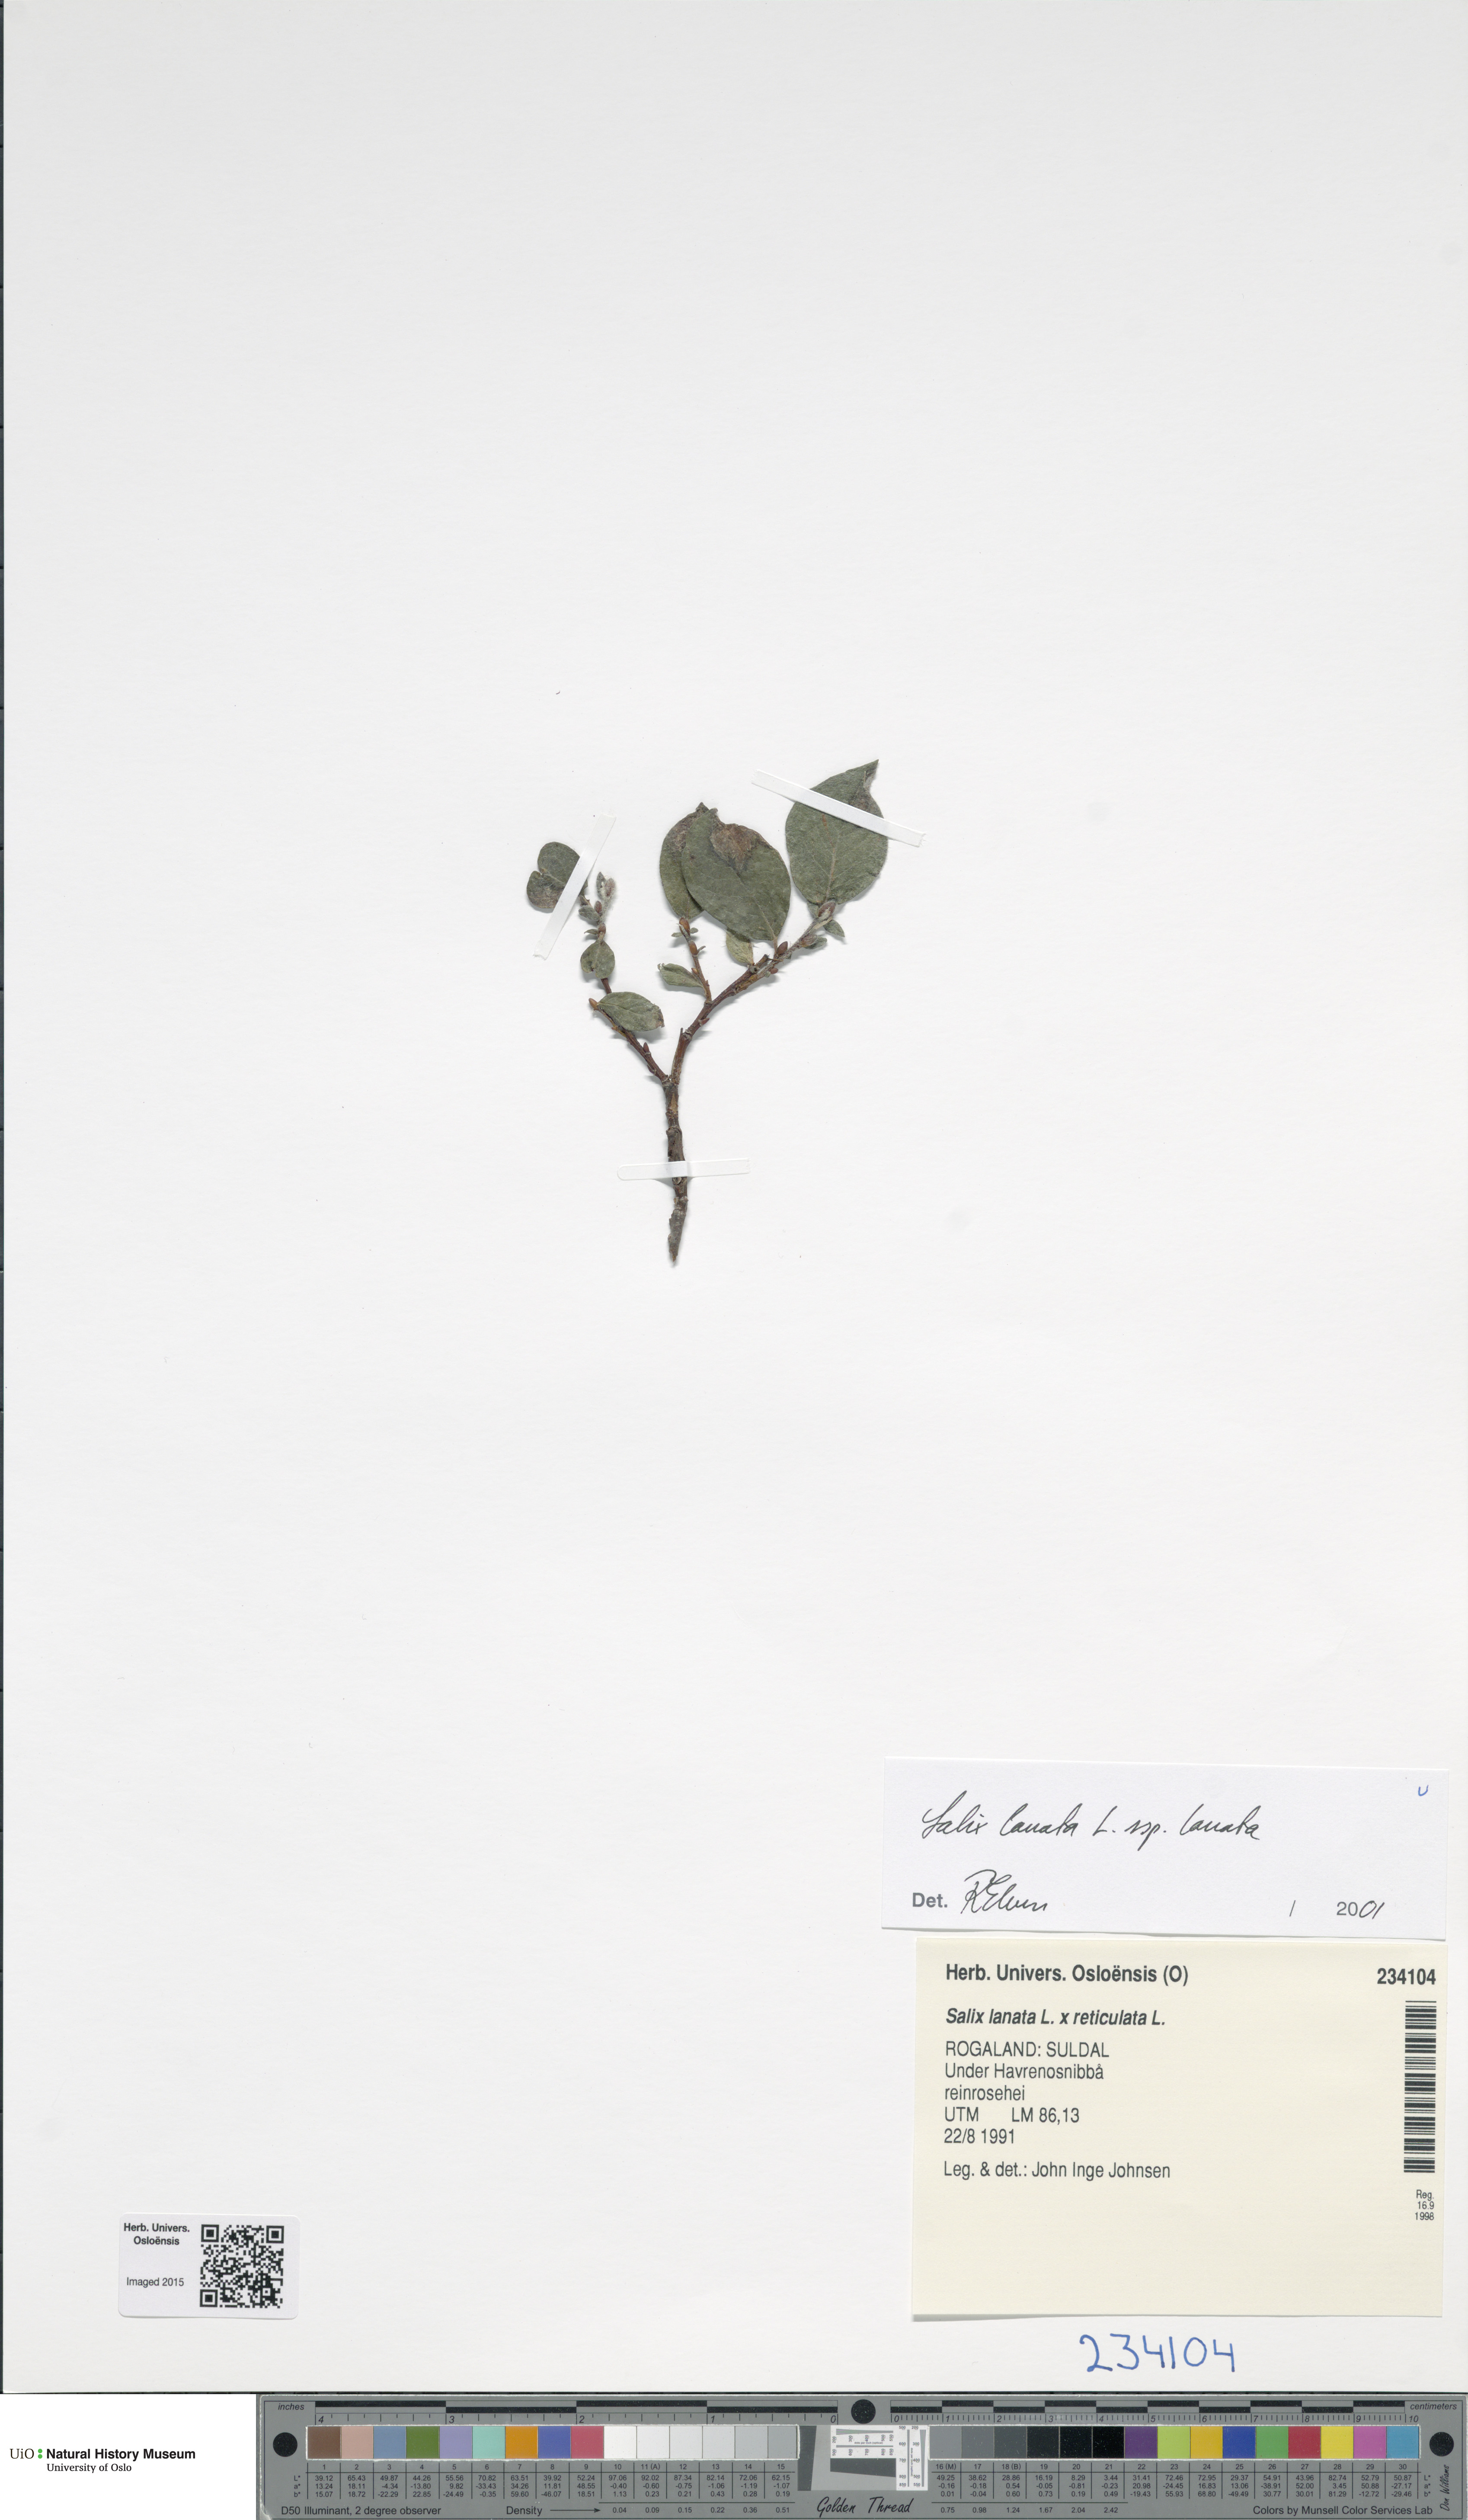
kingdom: Plantae
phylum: Tracheophyta
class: Magnoliopsida
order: Malpighiales
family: Salicaceae
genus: Salix
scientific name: Salix lanata
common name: Woolly willow
